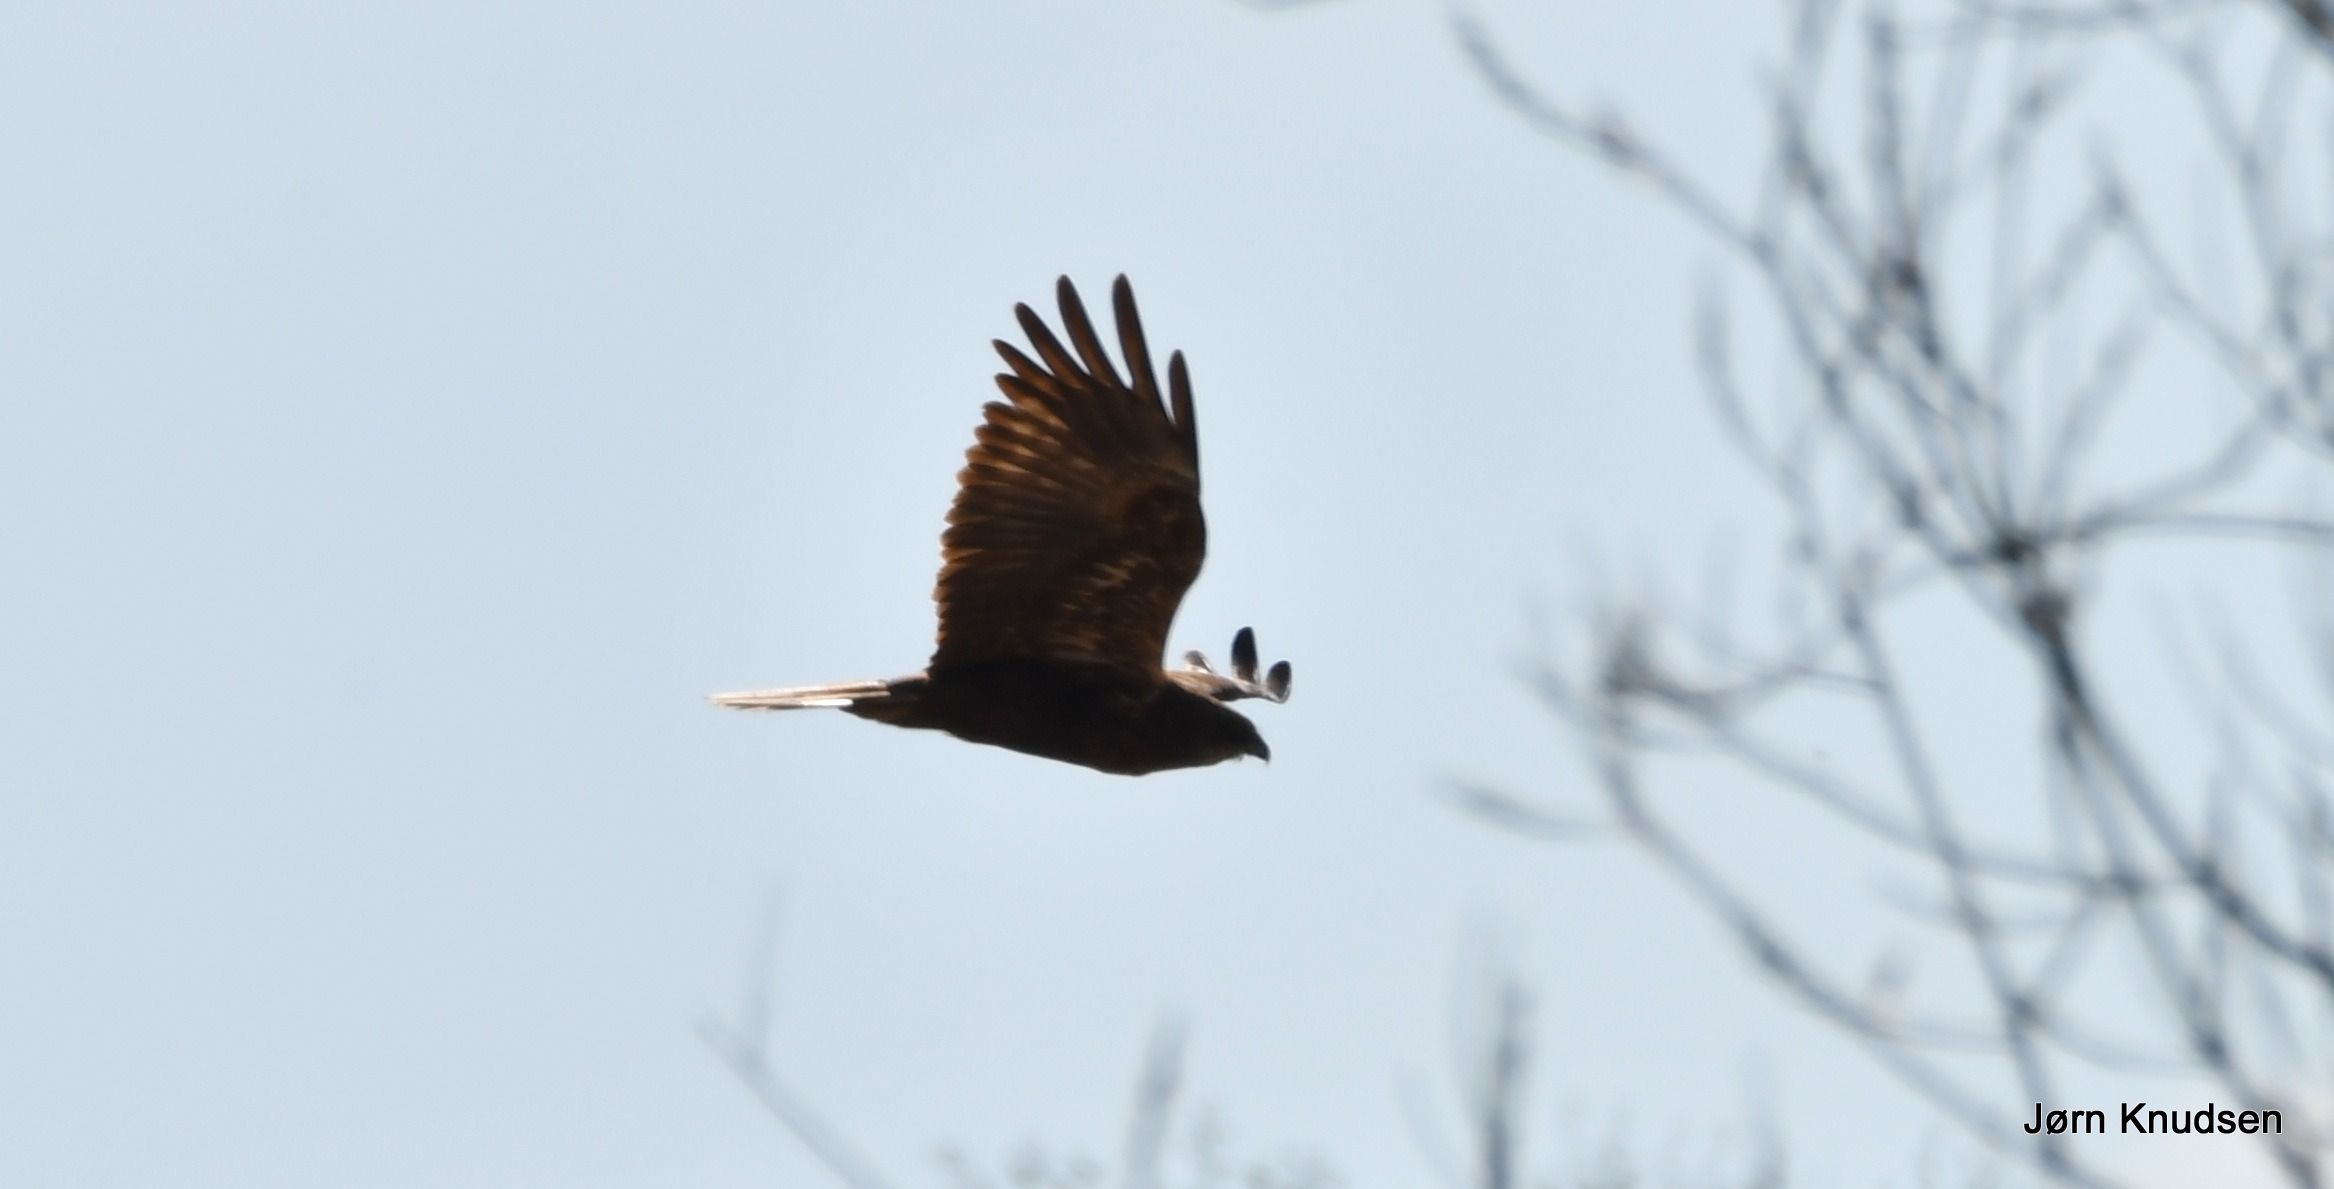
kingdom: Animalia
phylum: Chordata
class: Aves
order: Accipitriformes
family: Accipitridae
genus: Circus
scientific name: Circus aeruginosus
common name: Rørhøg
